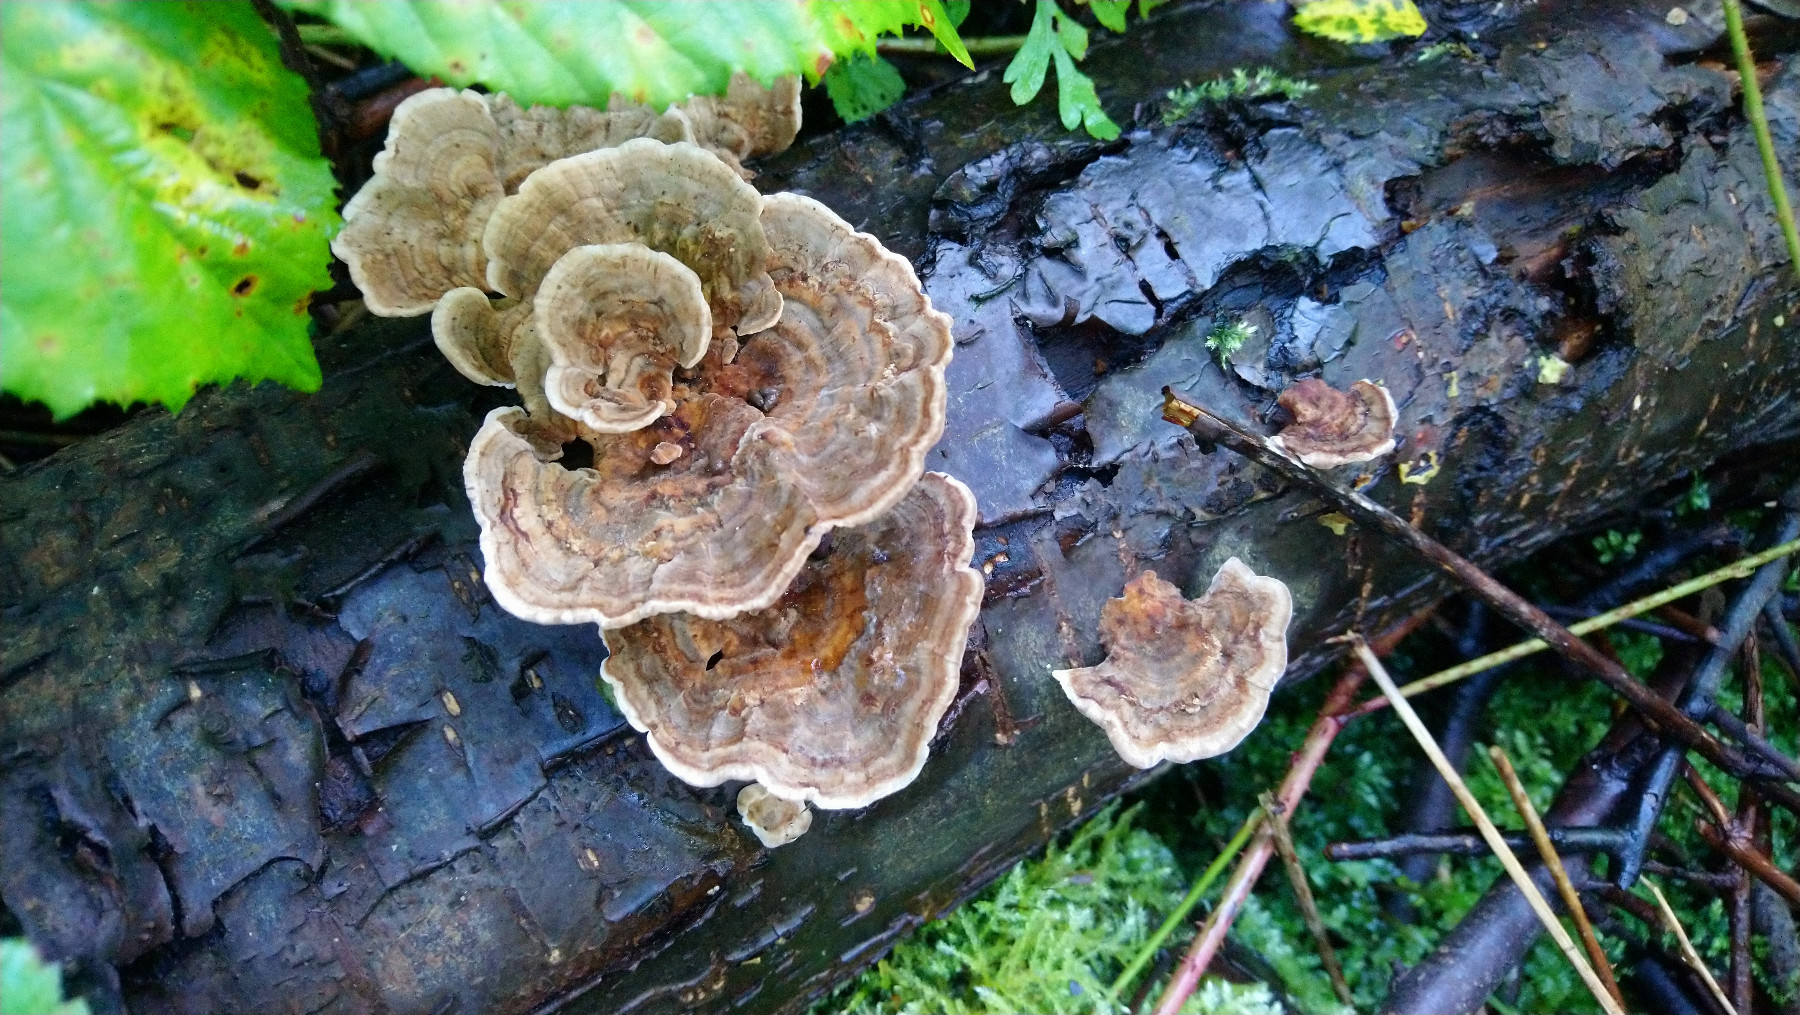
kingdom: Fungi
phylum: Basidiomycota
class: Agaricomycetes
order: Polyporales
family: Polyporaceae
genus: Trametes
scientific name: Trametes versicolor
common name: broget læderporesvamp
